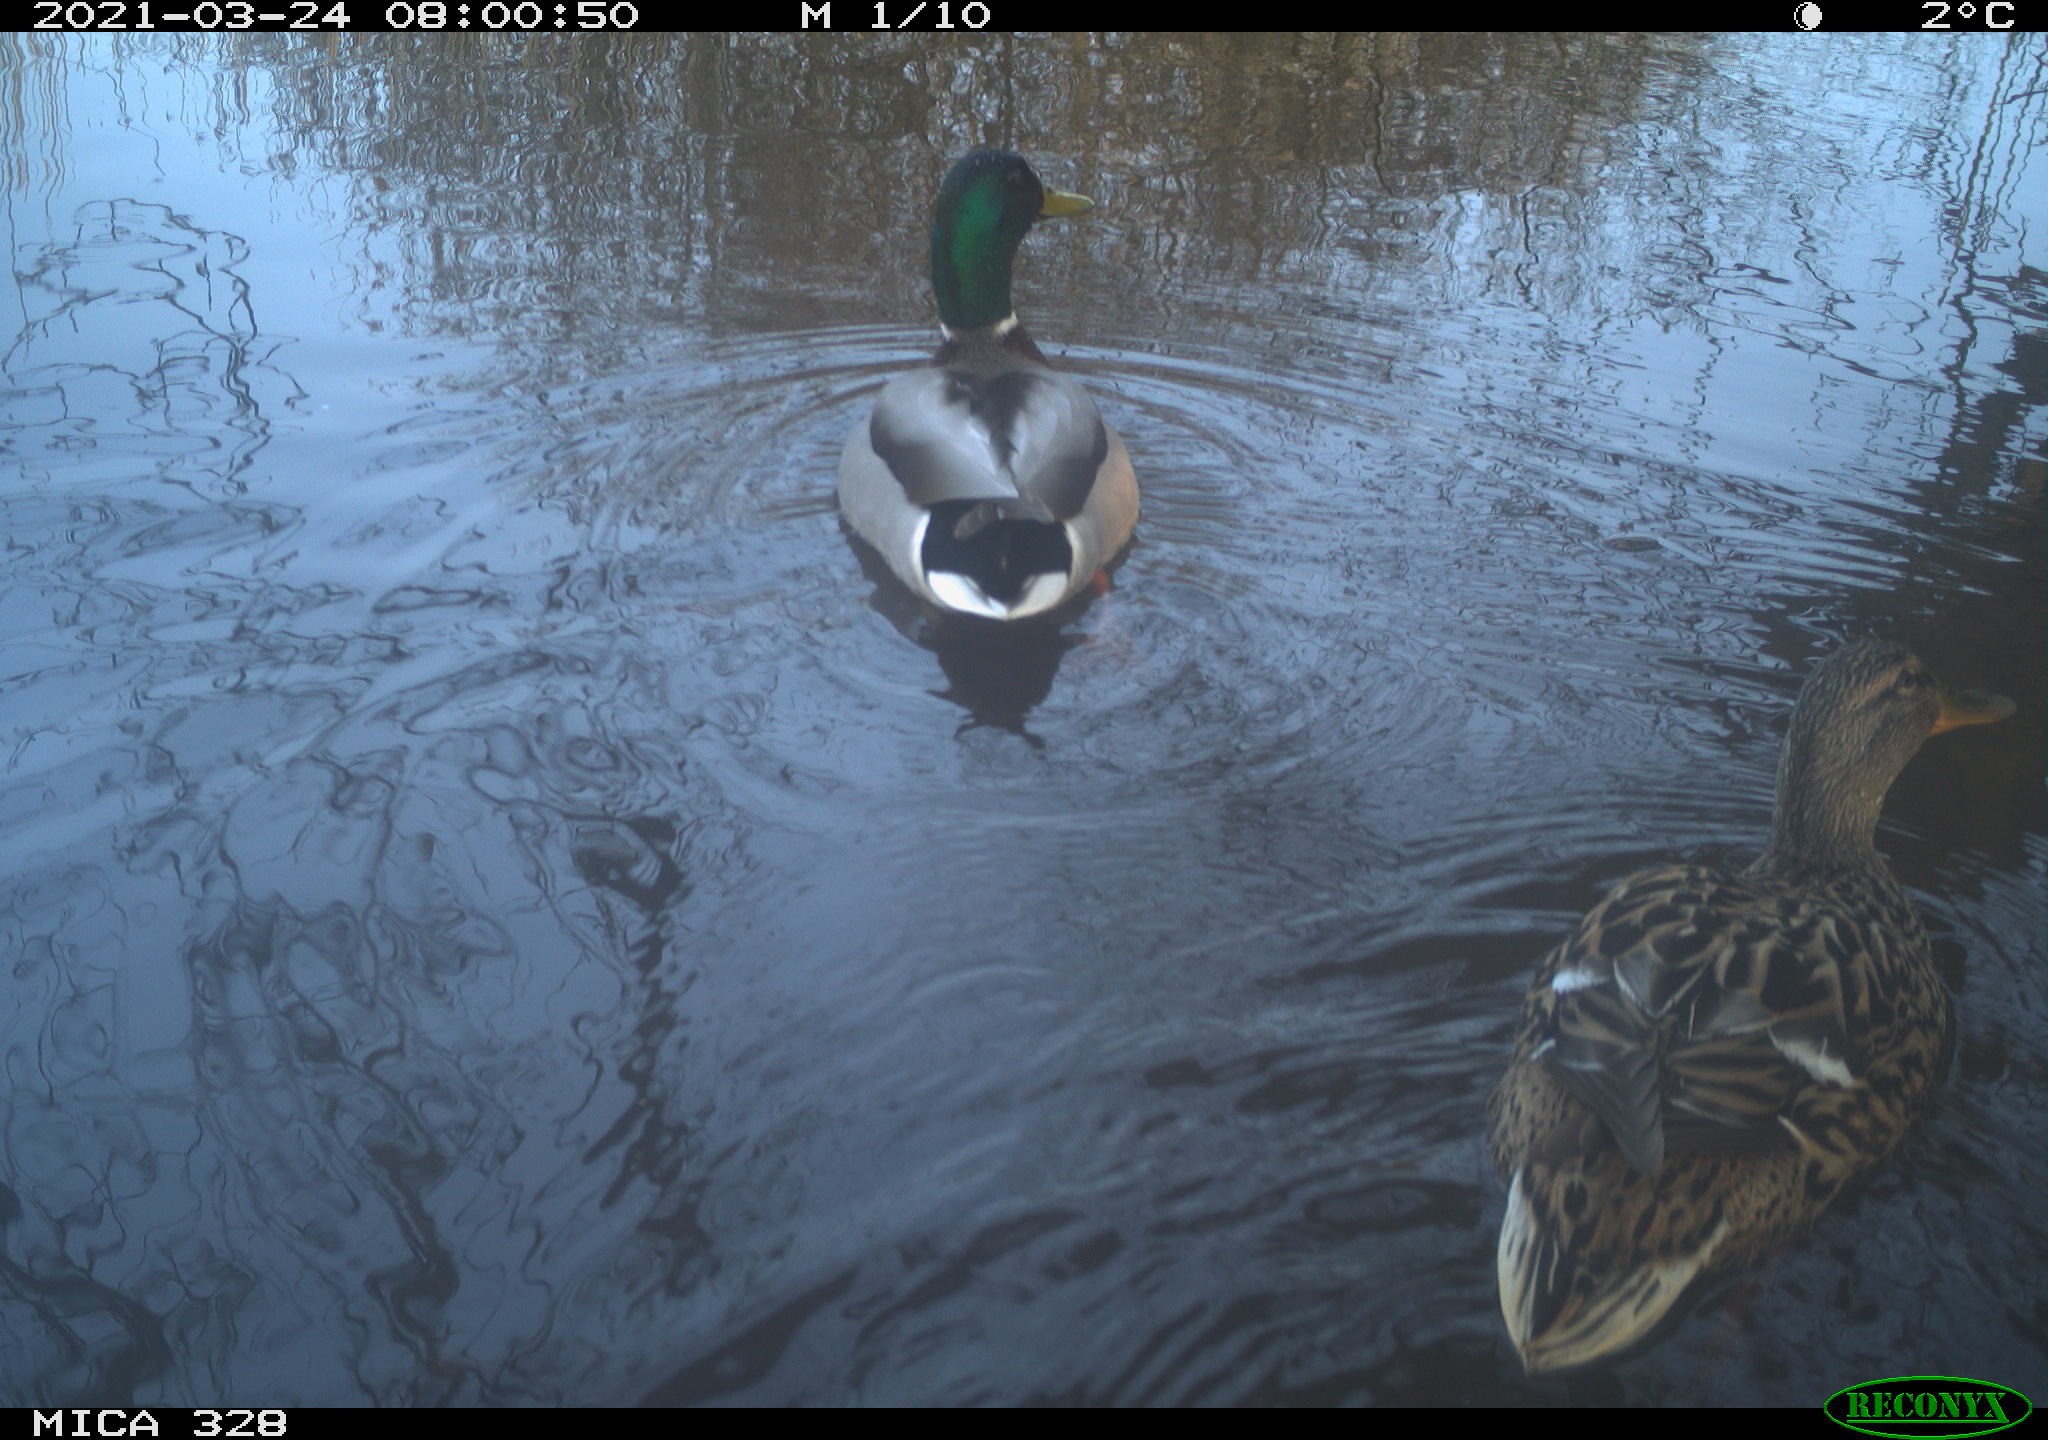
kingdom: Animalia
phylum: Chordata
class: Aves
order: Anseriformes
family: Anatidae
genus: Anas
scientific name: Anas platyrhynchos
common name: Mallard
